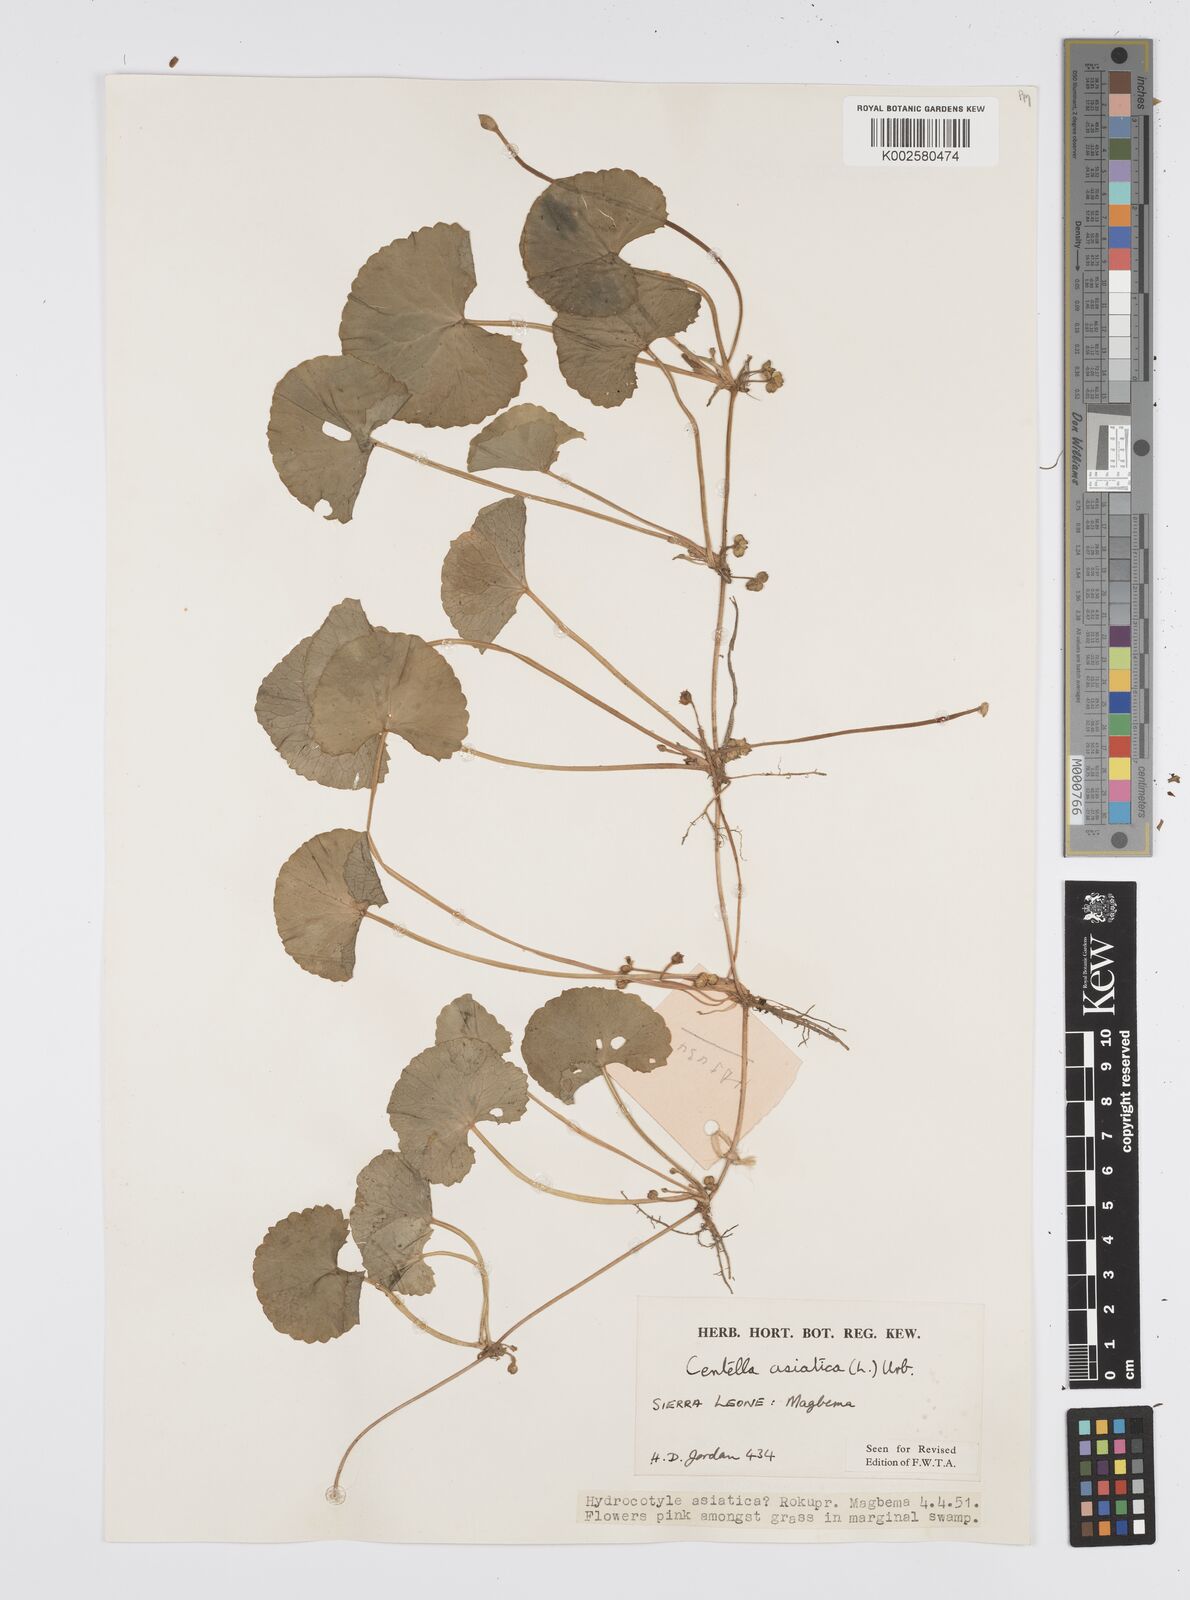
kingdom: Plantae
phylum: Tracheophyta
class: Magnoliopsida
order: Apiales
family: Apiaceae
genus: Centella
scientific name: Centella asiatica
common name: Spadeleaf
